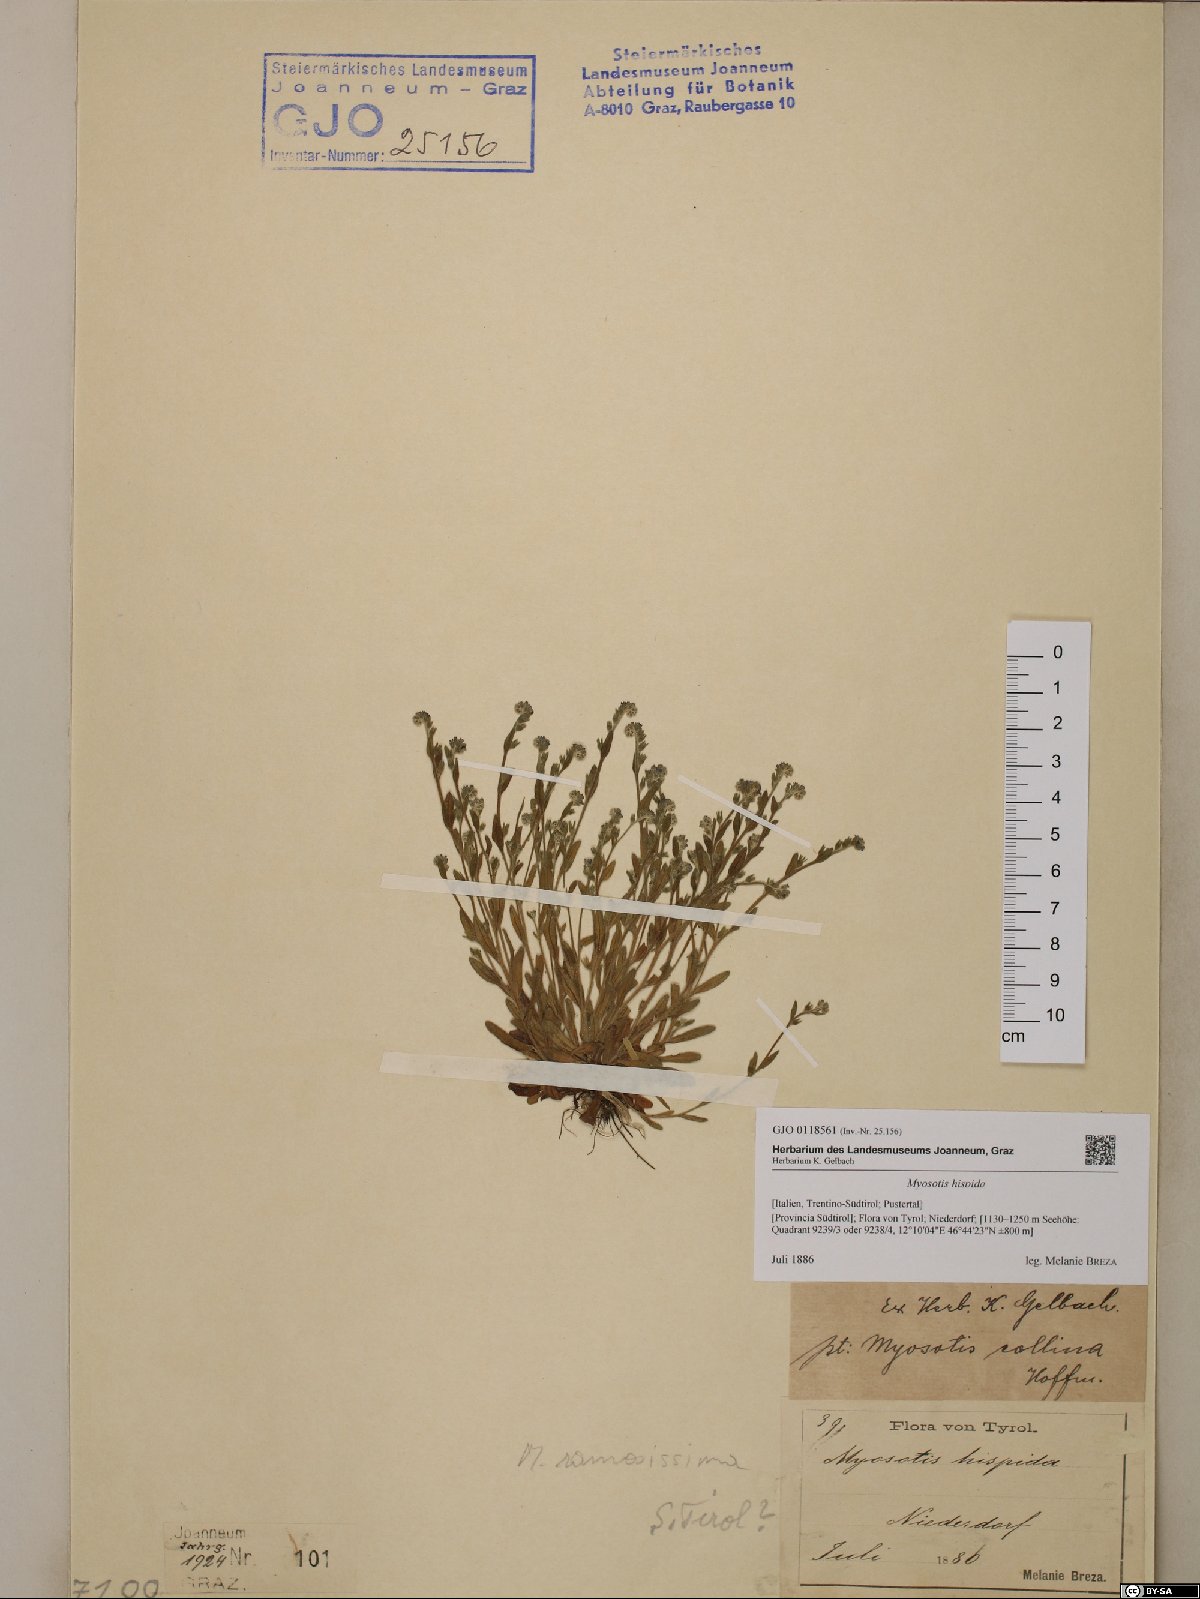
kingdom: Plantae
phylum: Tracheophyta
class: Magnoliopsida
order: Boraginales
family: Boraginaceae
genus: Myosotis
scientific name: Myosotis ramosissima
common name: Early forget-me-not
